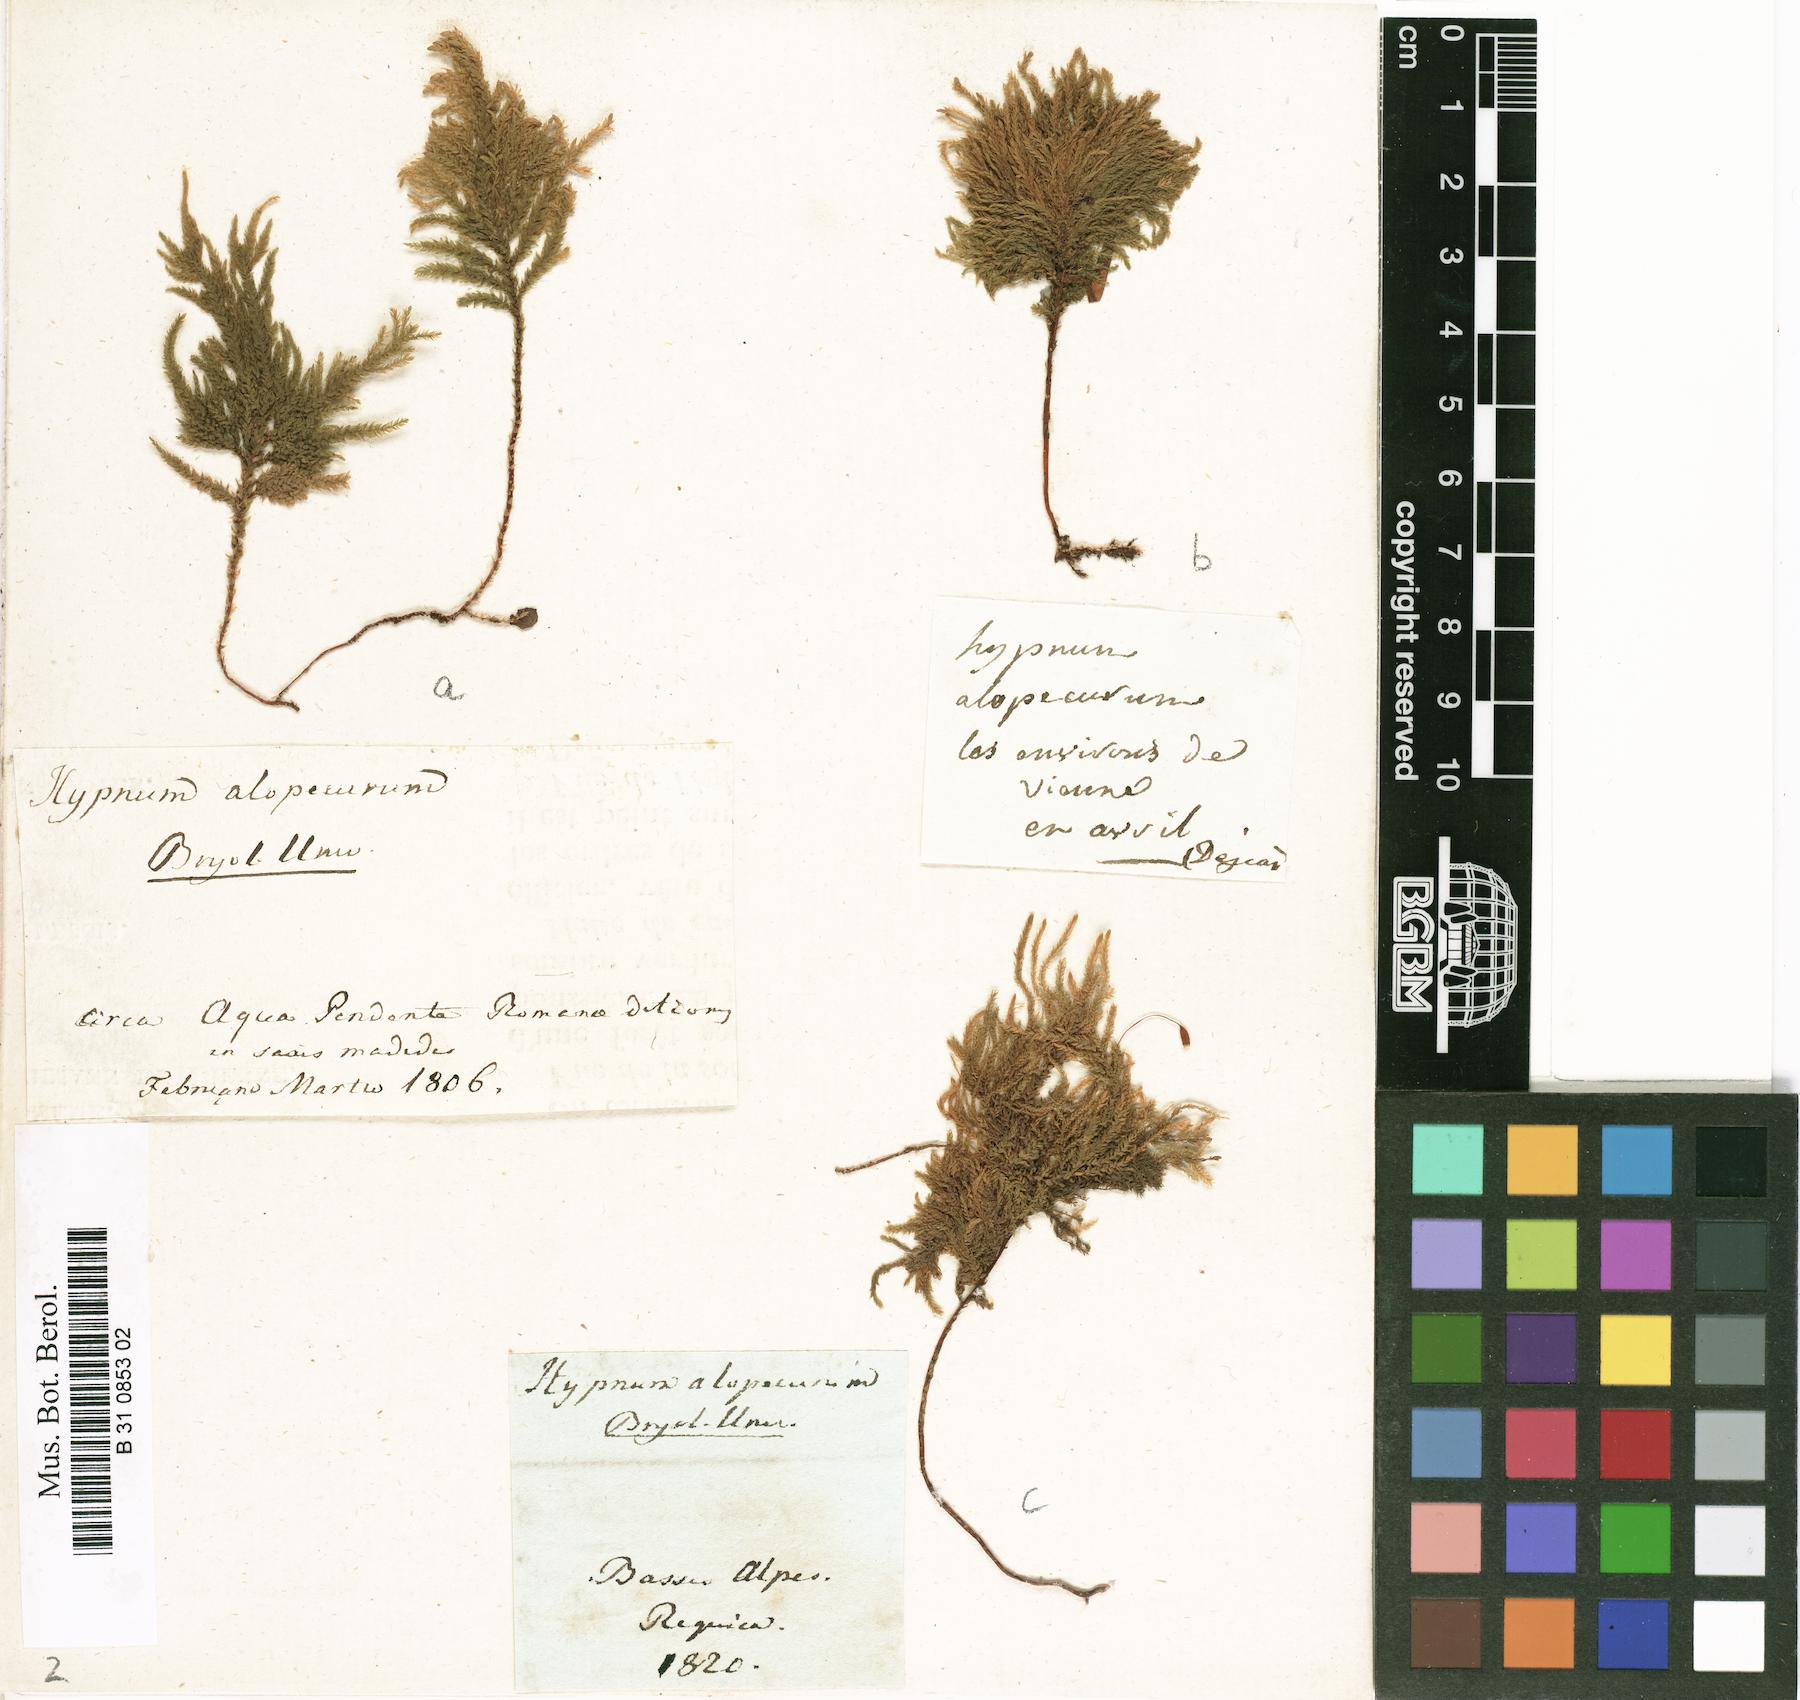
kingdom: Plantae
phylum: Bryophyta
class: Bryopsida
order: Hypnales
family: Neckeraceae
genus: Thamnobryum
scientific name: Thamnobryum alopecurum
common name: Fox-tail feather-moss
